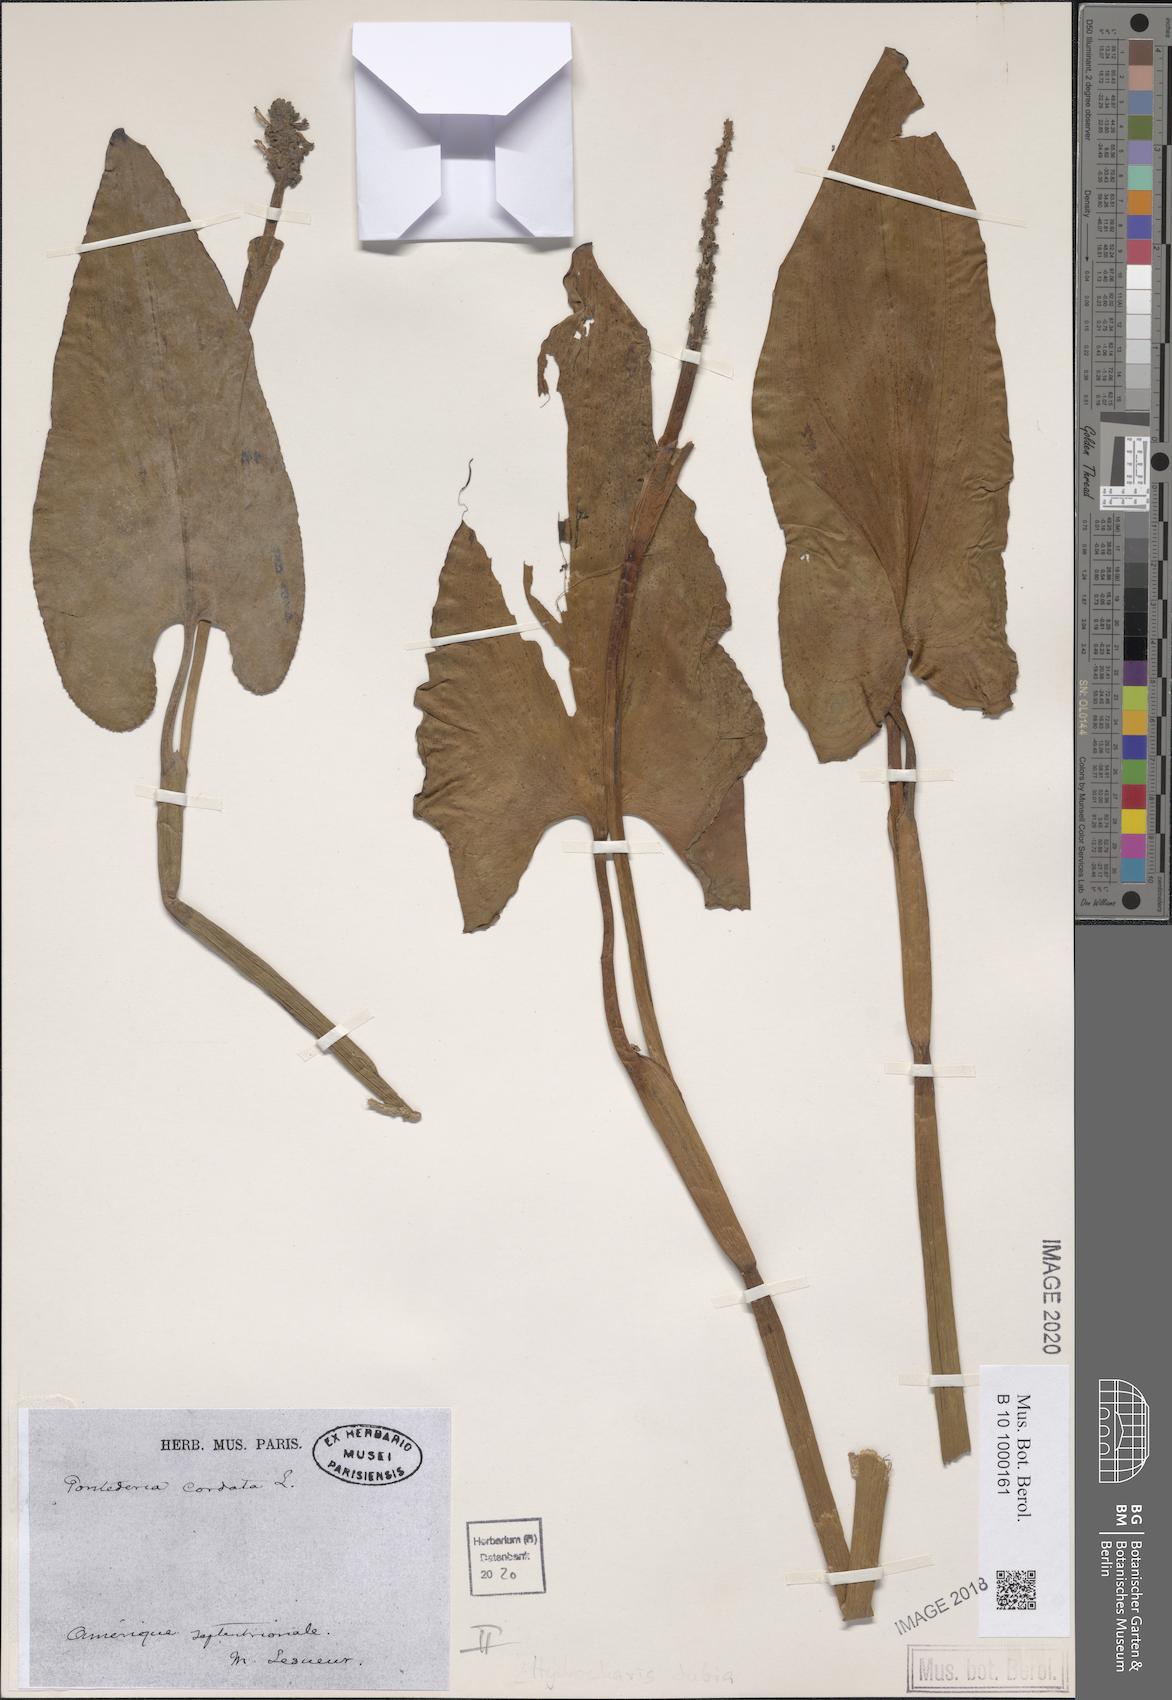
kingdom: Plantae
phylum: Tracheophyta
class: Liliopsida
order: Commelinales
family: Pontederiaceae
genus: Pontederia
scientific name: Pontederia cordata
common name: Pickerelweed
